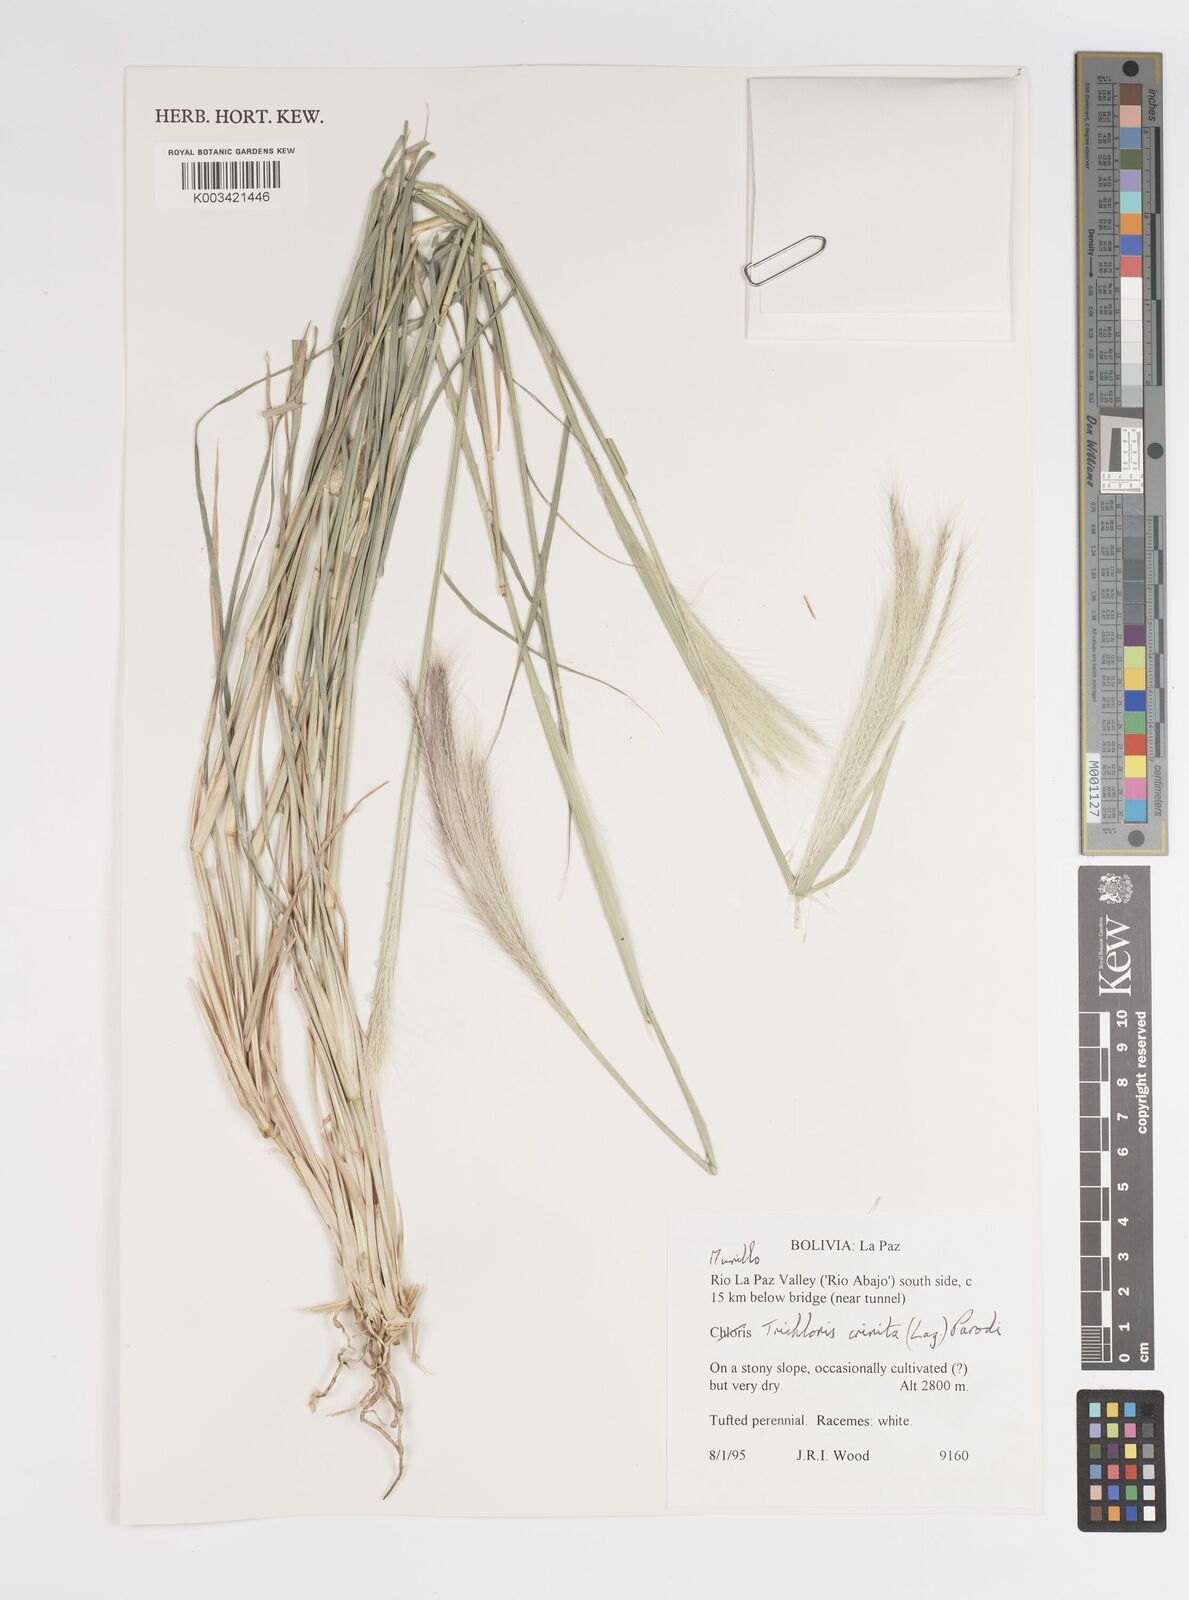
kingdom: Plantae
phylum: Tracheophyta
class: Liliopsida
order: Poales
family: Poaceae
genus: Leptochloa
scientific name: Leptochloa crinita
